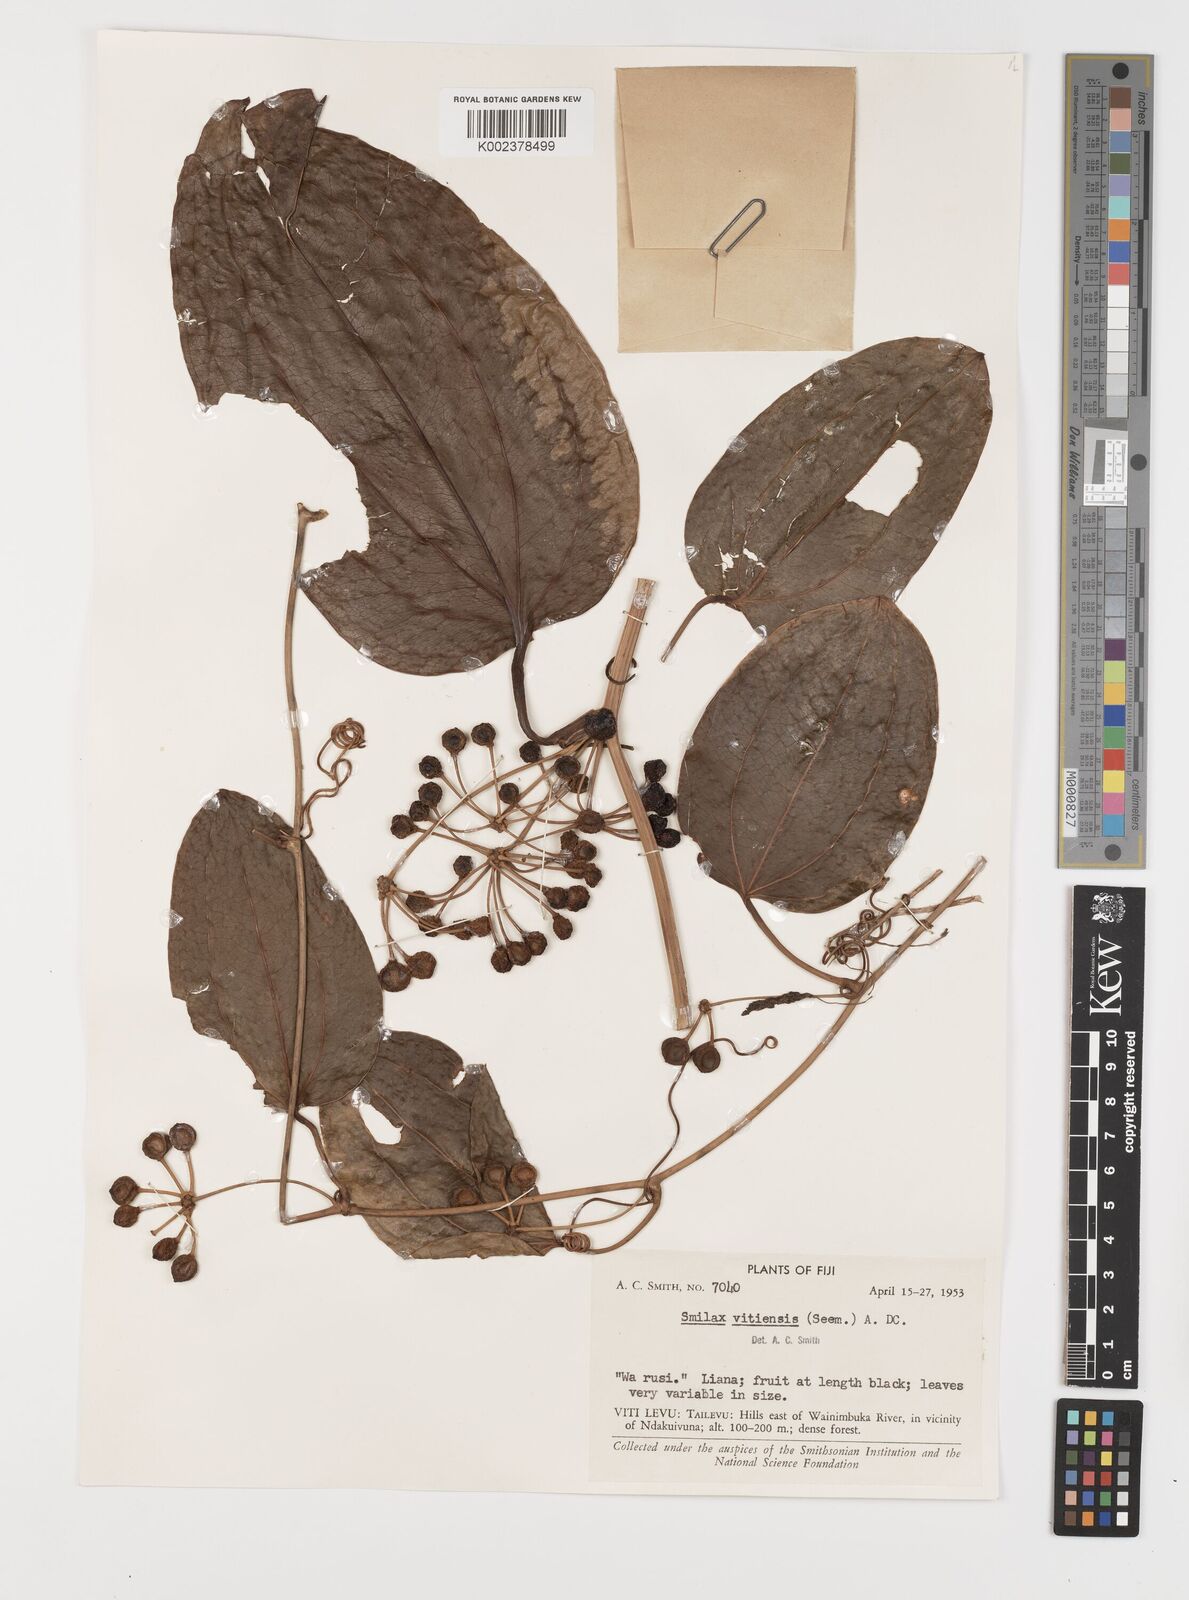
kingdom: Plantae
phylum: Tracheophyta
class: Liliopsida
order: Liliales
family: Smilacaceae
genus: Smilax
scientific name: Smilax vitiensis
